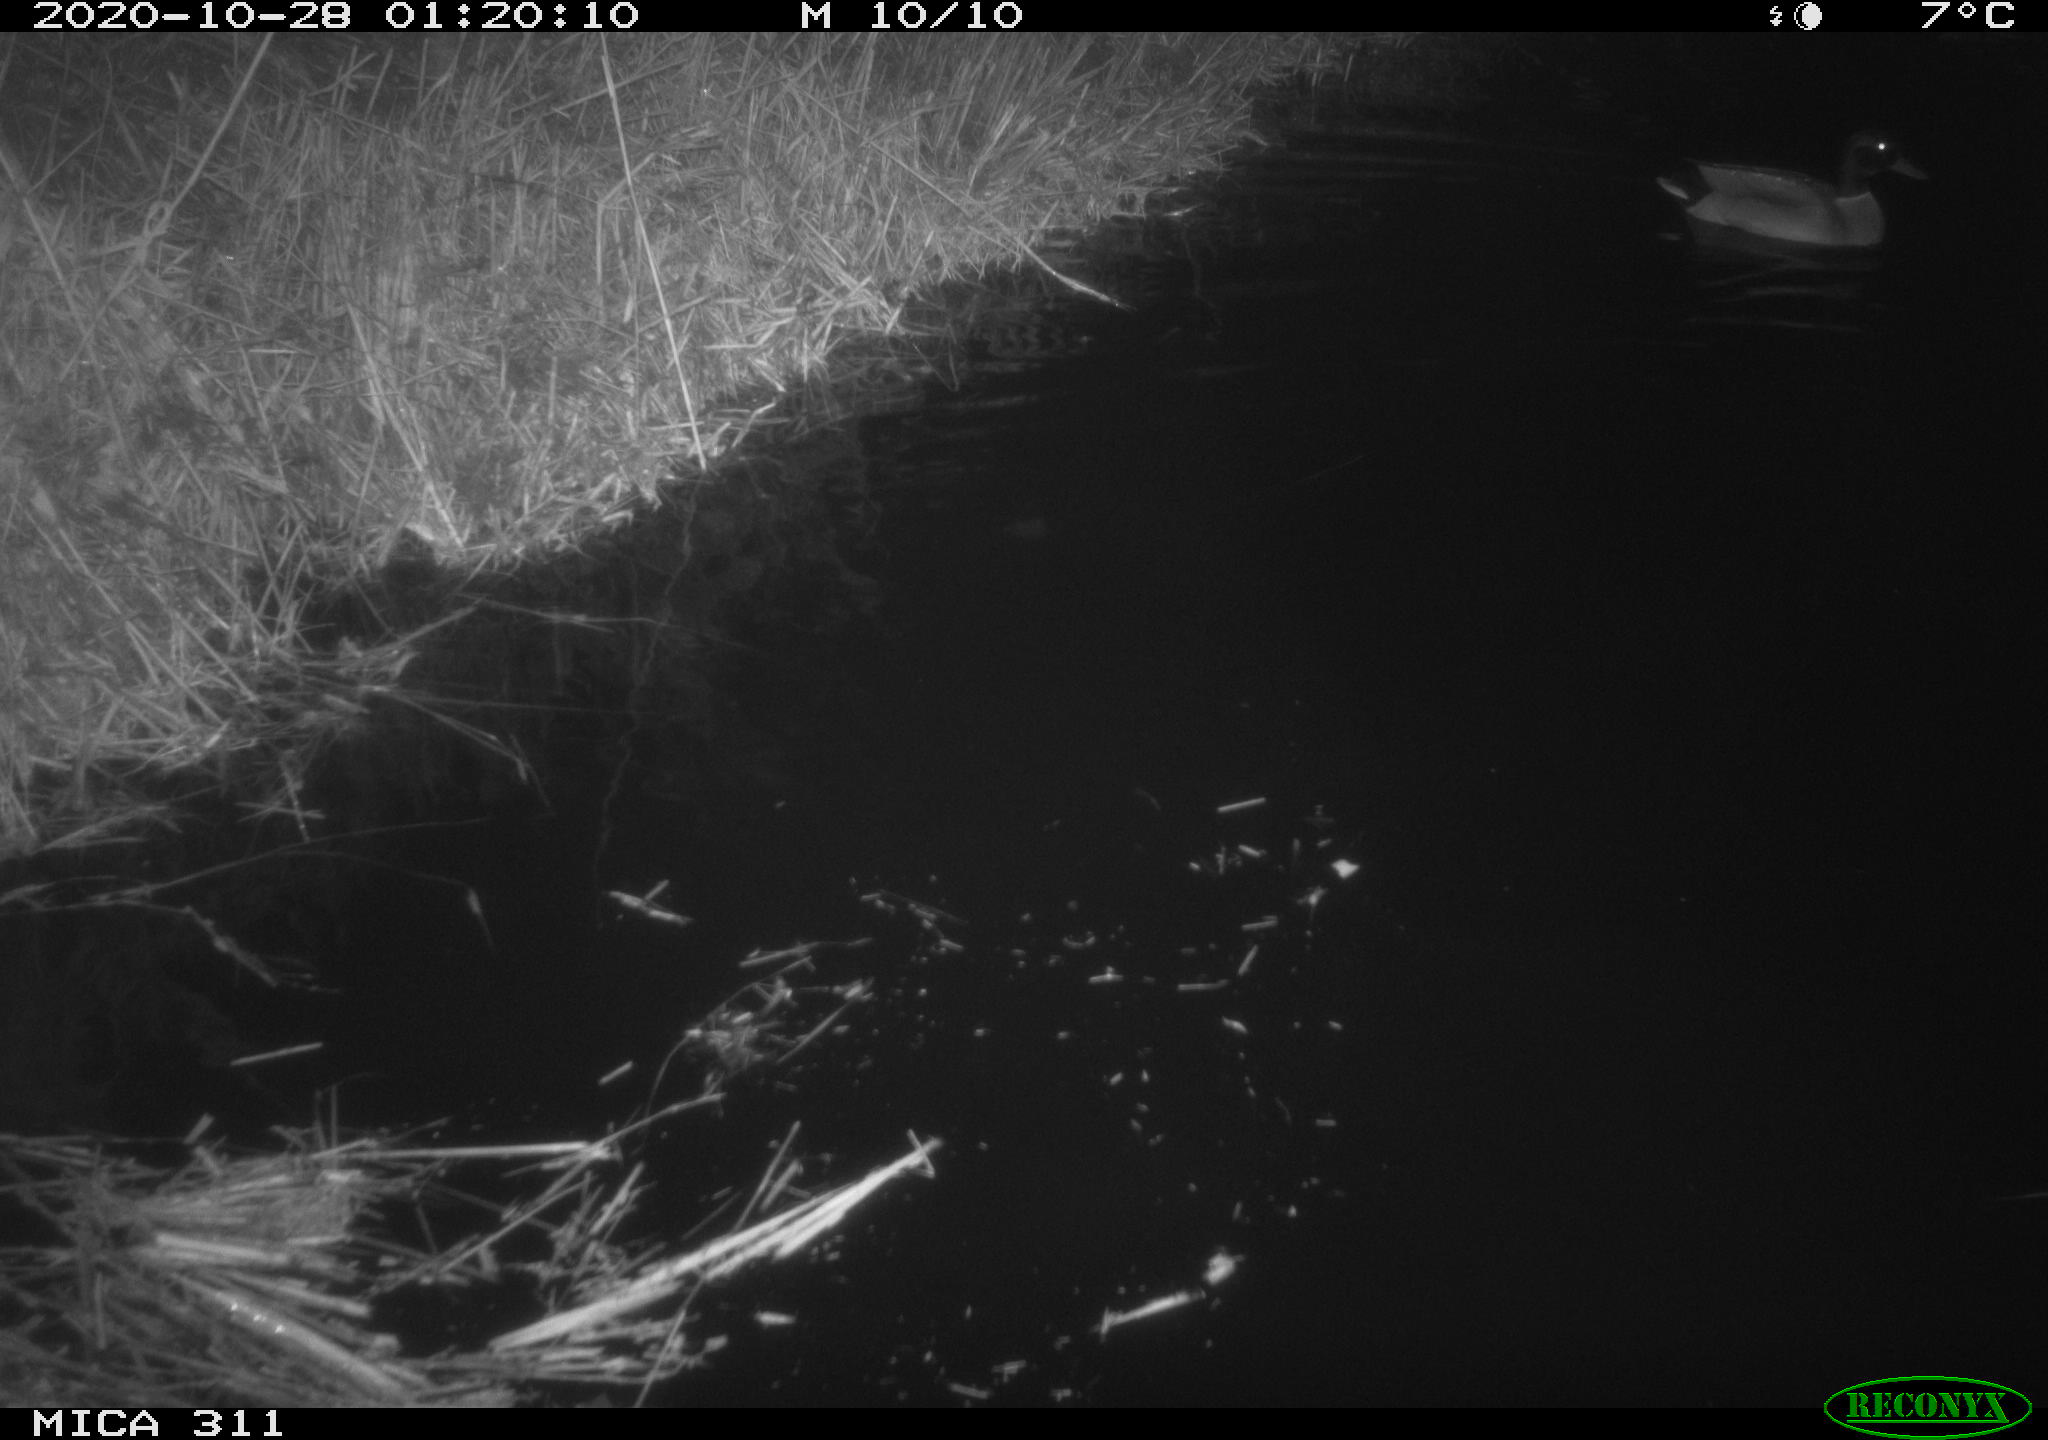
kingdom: Animalia
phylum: Chordata
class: Aves
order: Anseriformes
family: Anatidae
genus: Anas
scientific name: Anas platyrhynchos
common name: Mallard
